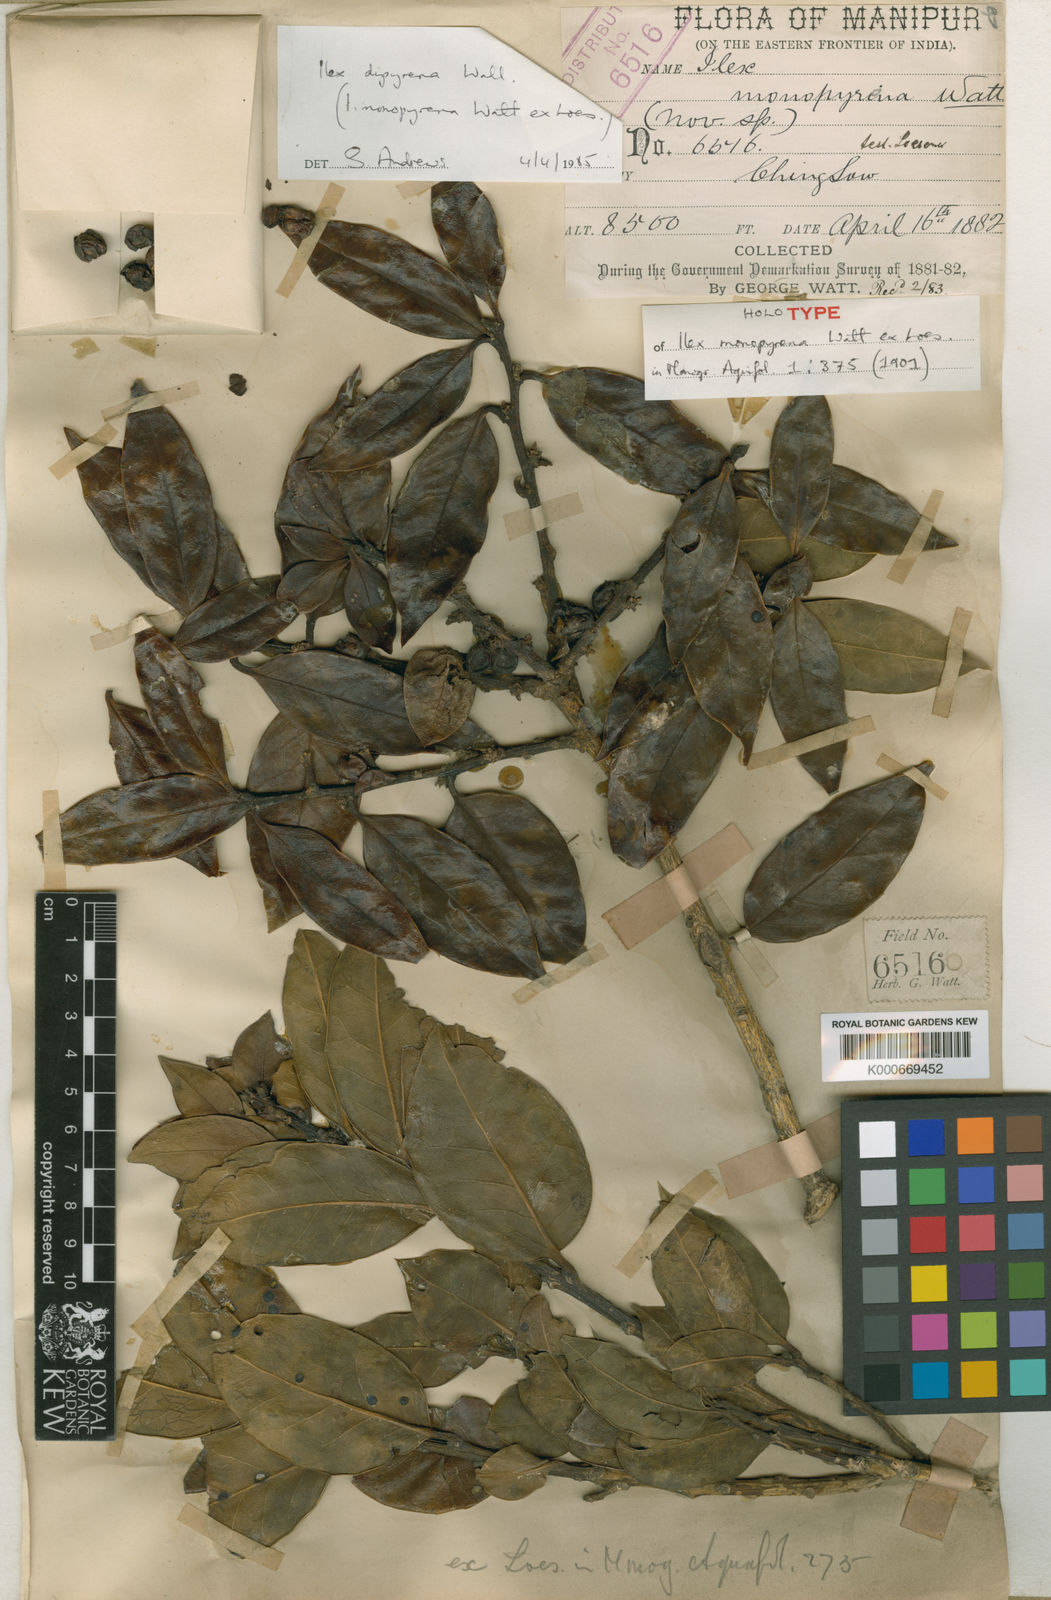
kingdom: Plantae
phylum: Tracheophyta
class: Magnoliopsida
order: Aquifoliales
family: Aquifoliaceae
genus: Ilex
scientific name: Ilex dipyrena
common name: Himalayan holly
